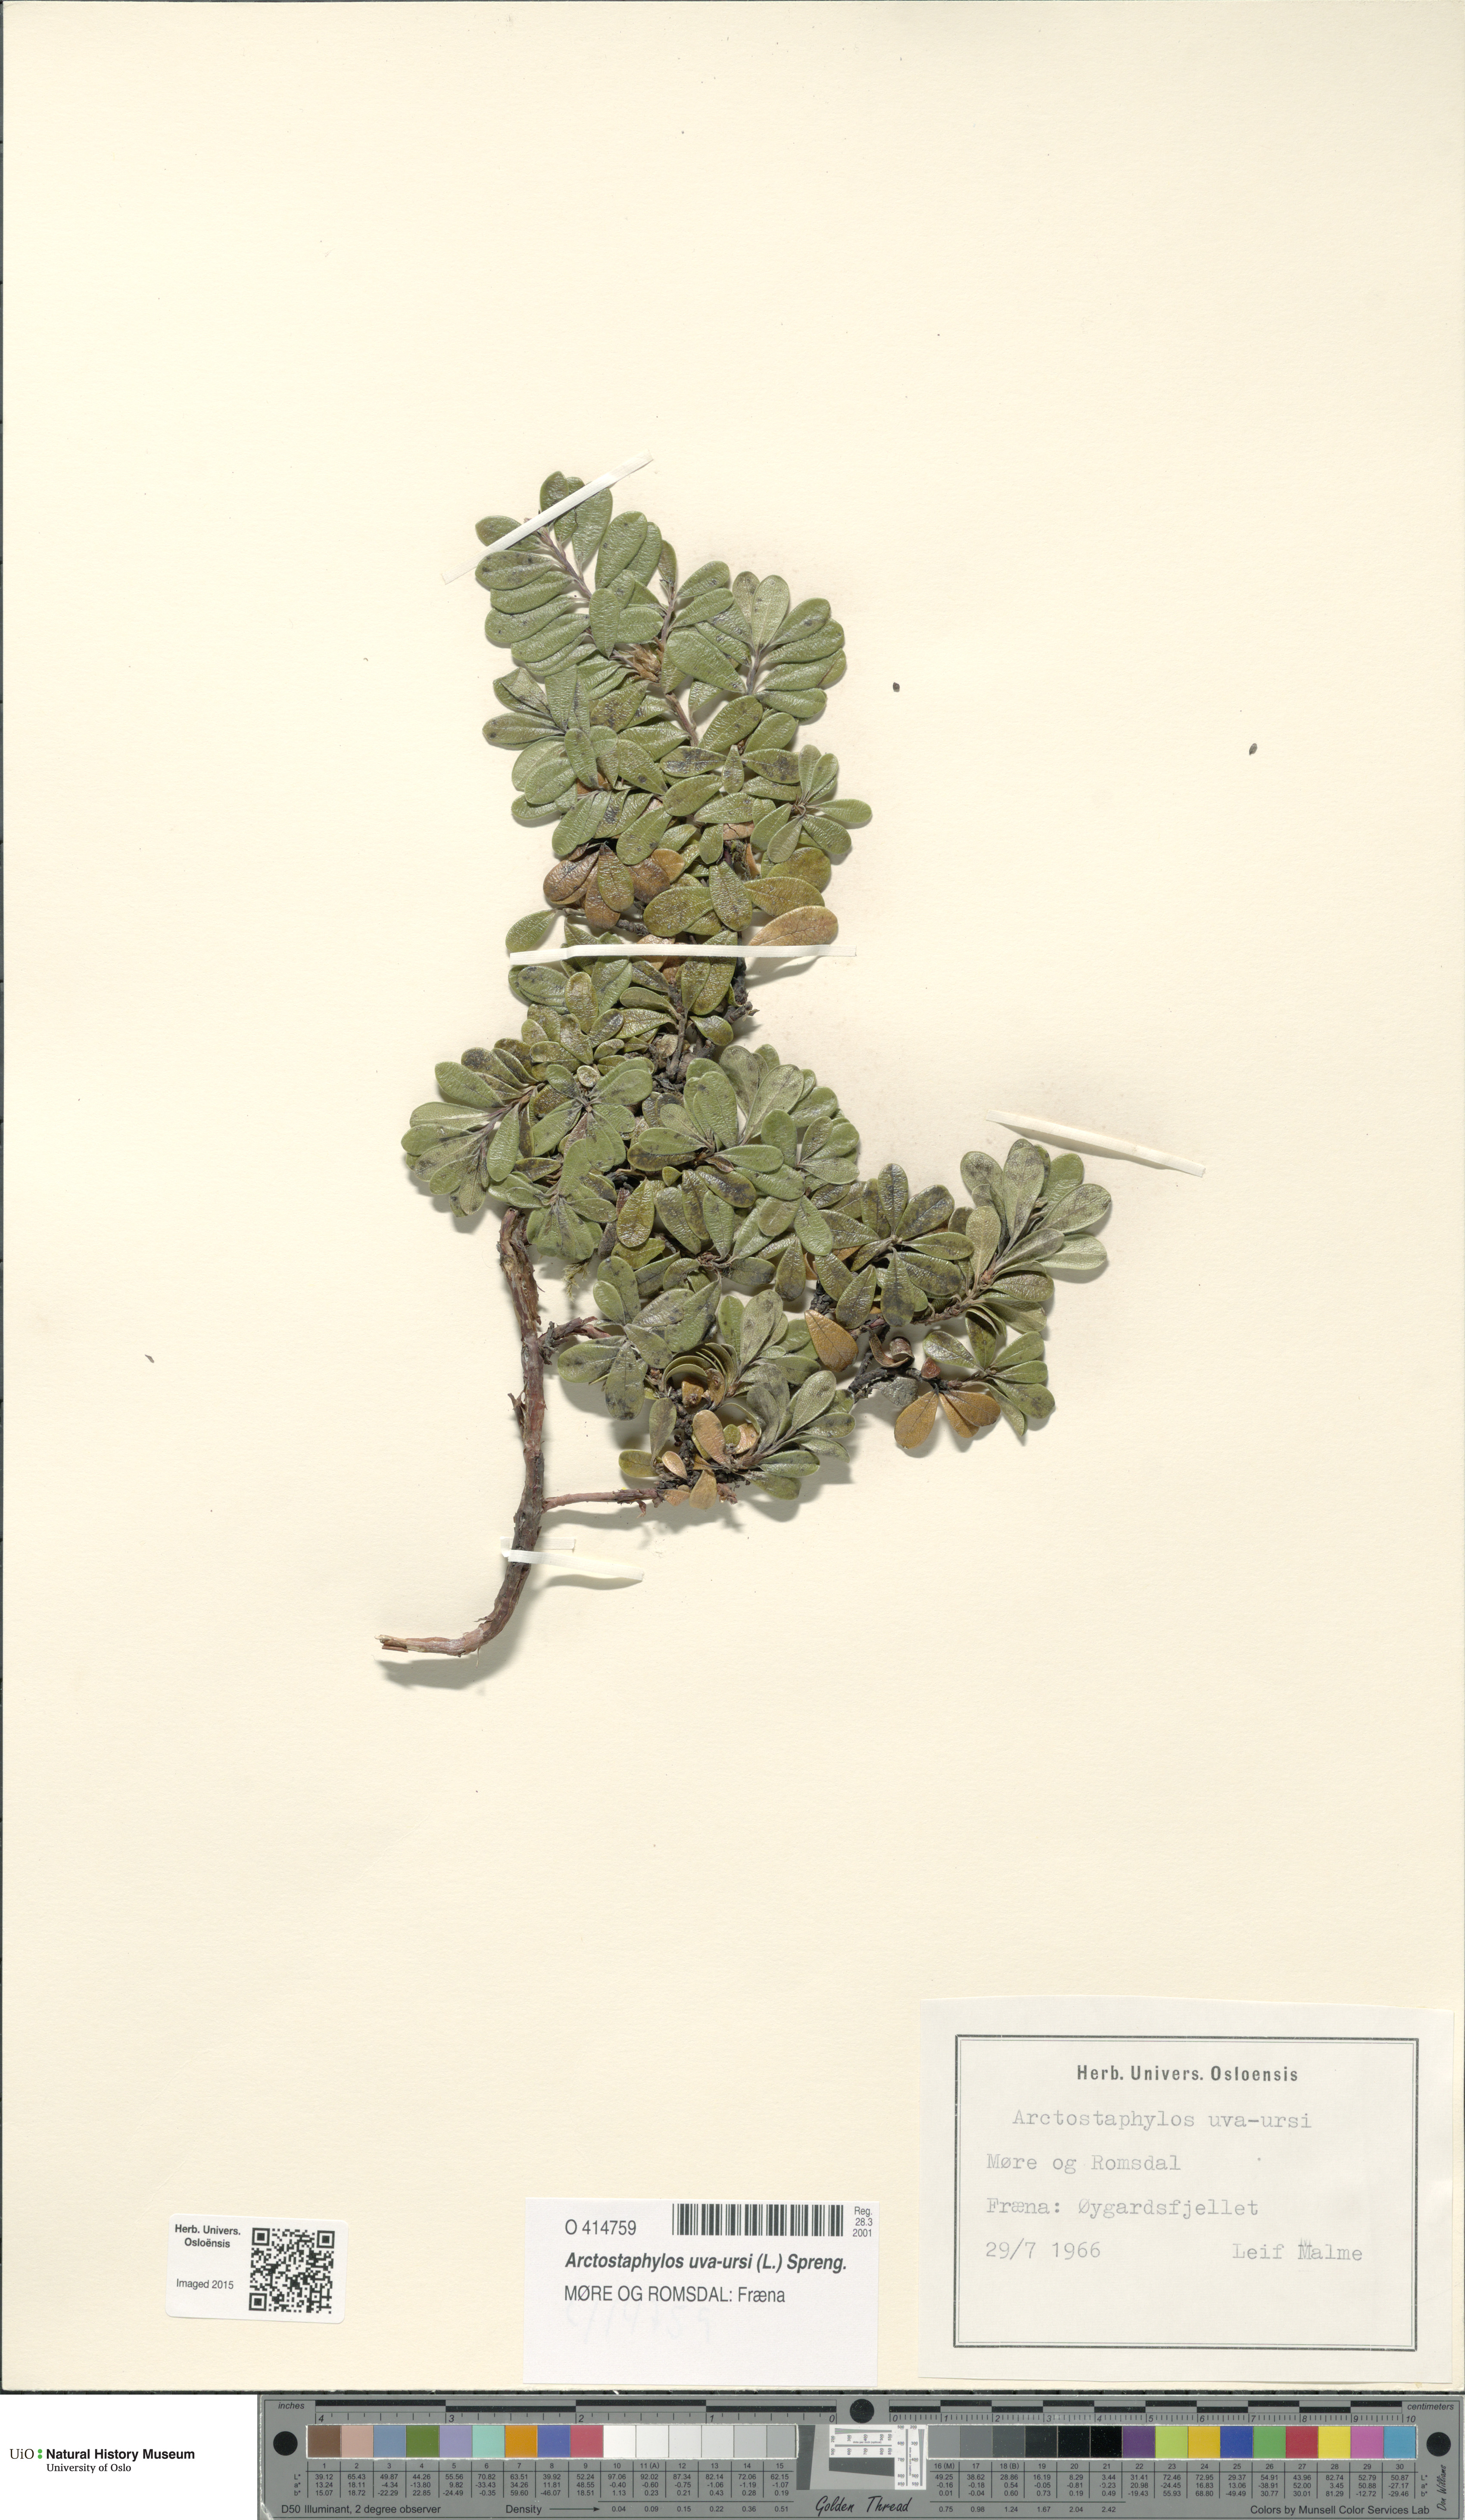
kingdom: Plantae
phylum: Tracheophyta
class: Magnoliopsida
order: Ericales
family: Ericaceae
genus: Arctostaphylos
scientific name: Arctostaphylos uva-ursi
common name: Bearberry
